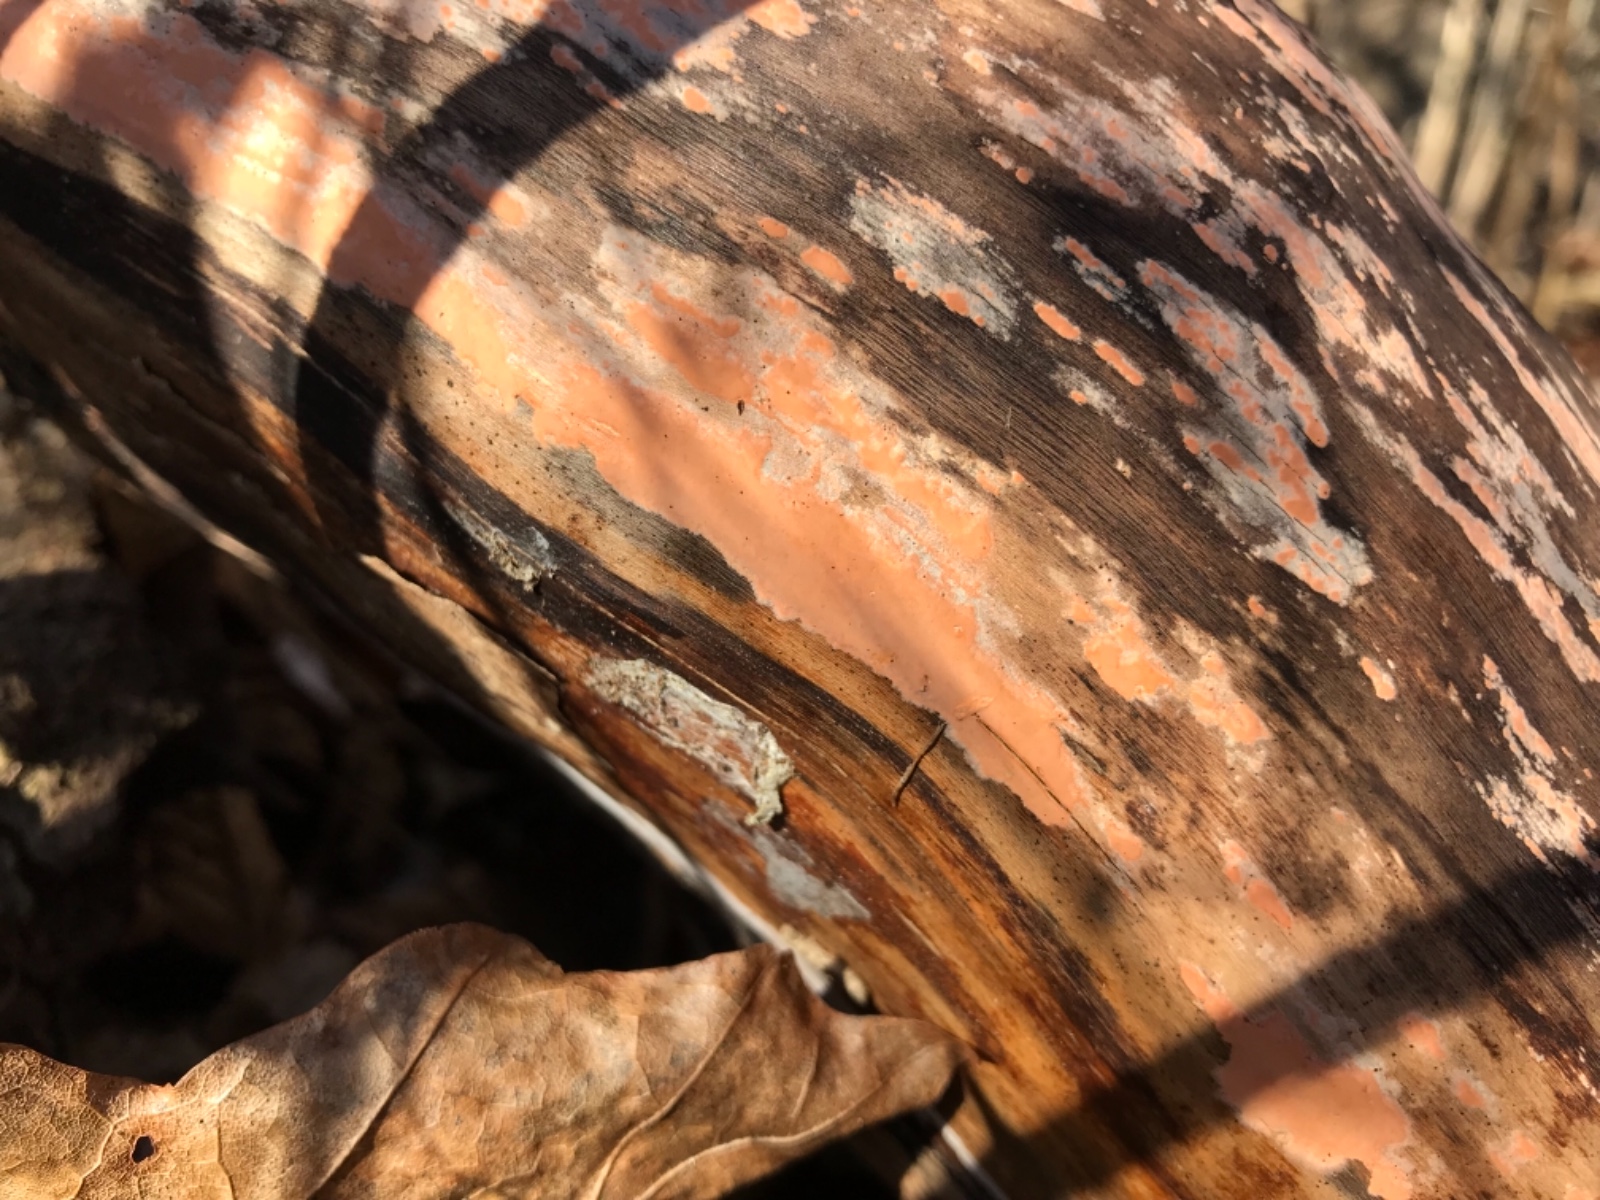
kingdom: Fungi
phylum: Basidiomycota
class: Agaricomycetes
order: Russulales
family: Peniophoraceae
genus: Peniophora
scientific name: Peniophora incarnata
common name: laksefarvet voksskind
